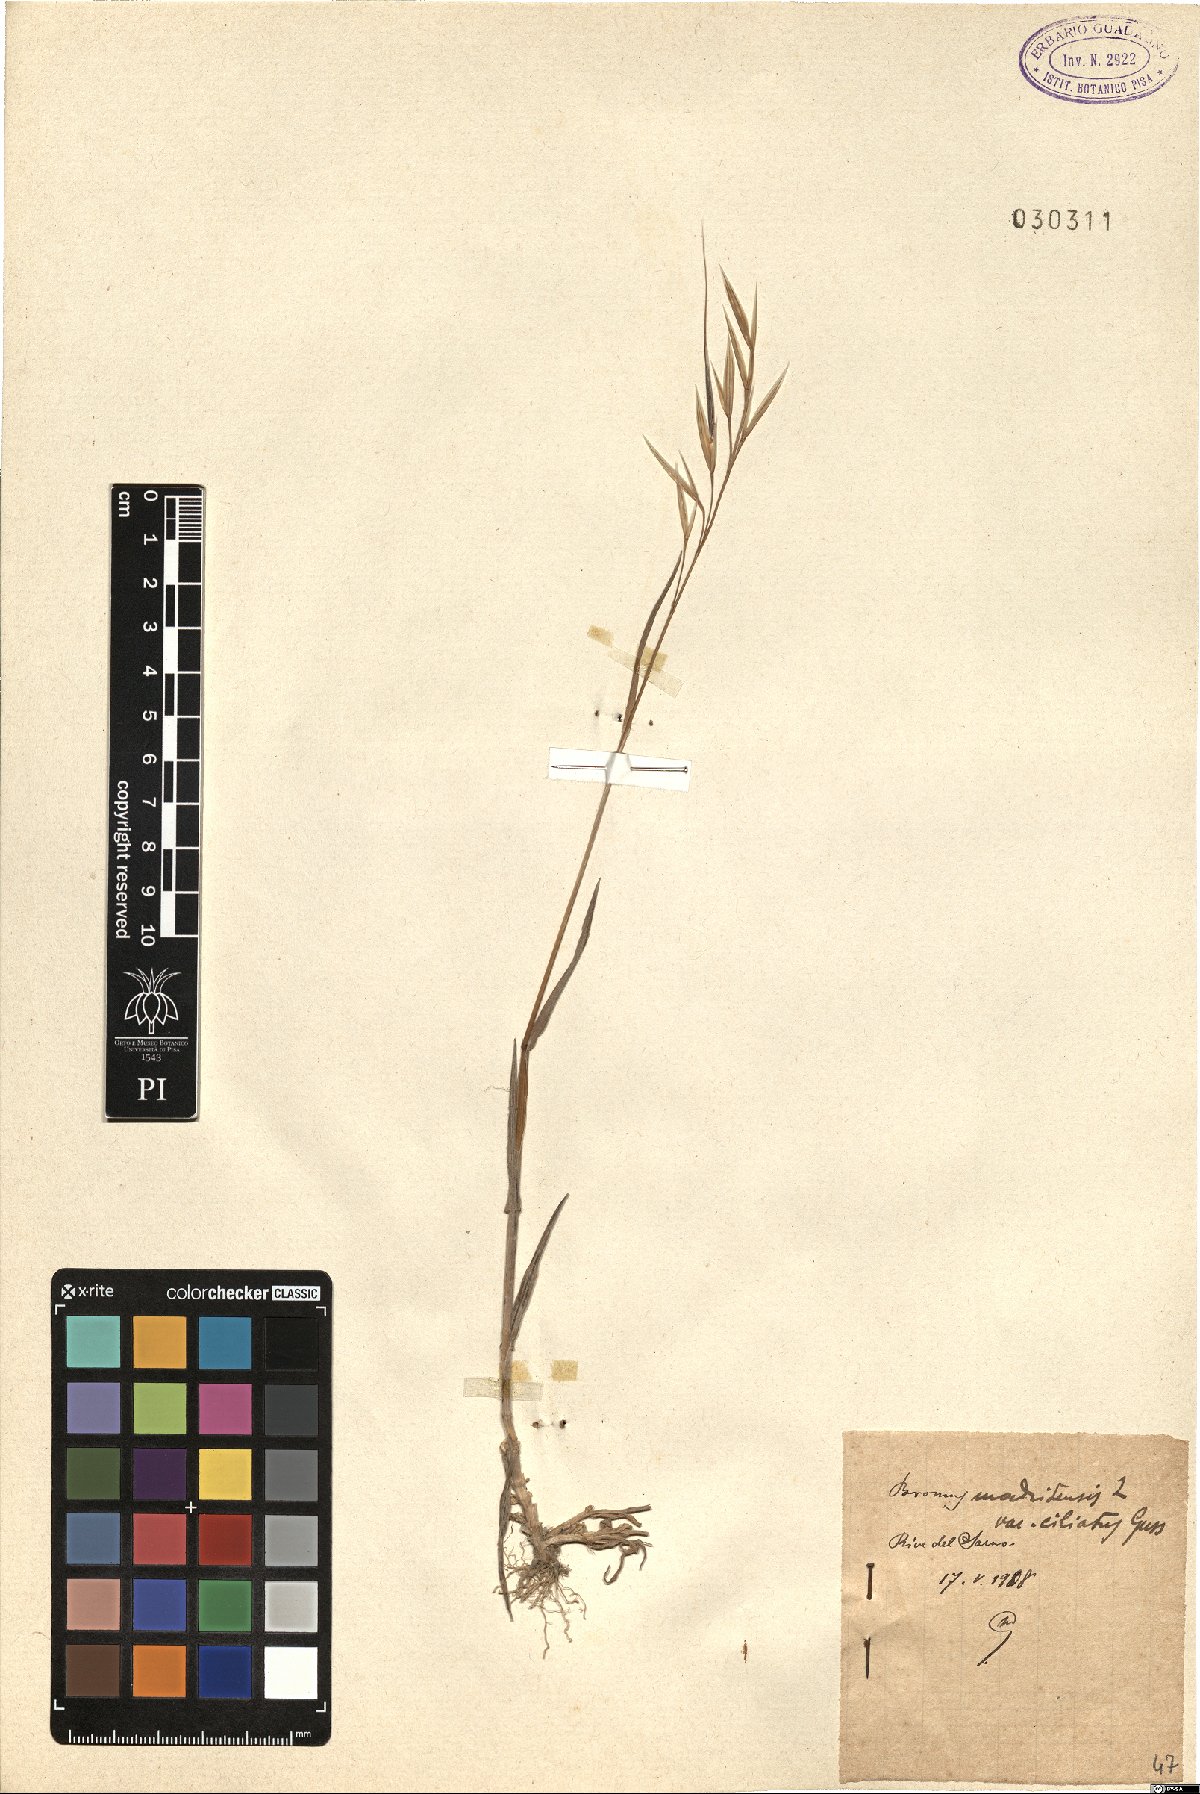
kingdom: Plantae
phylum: Tracheophyta
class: Liliopsida
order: Poales
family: Poaceae
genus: Bromus
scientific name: Bromus madritensis
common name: Compact brome
